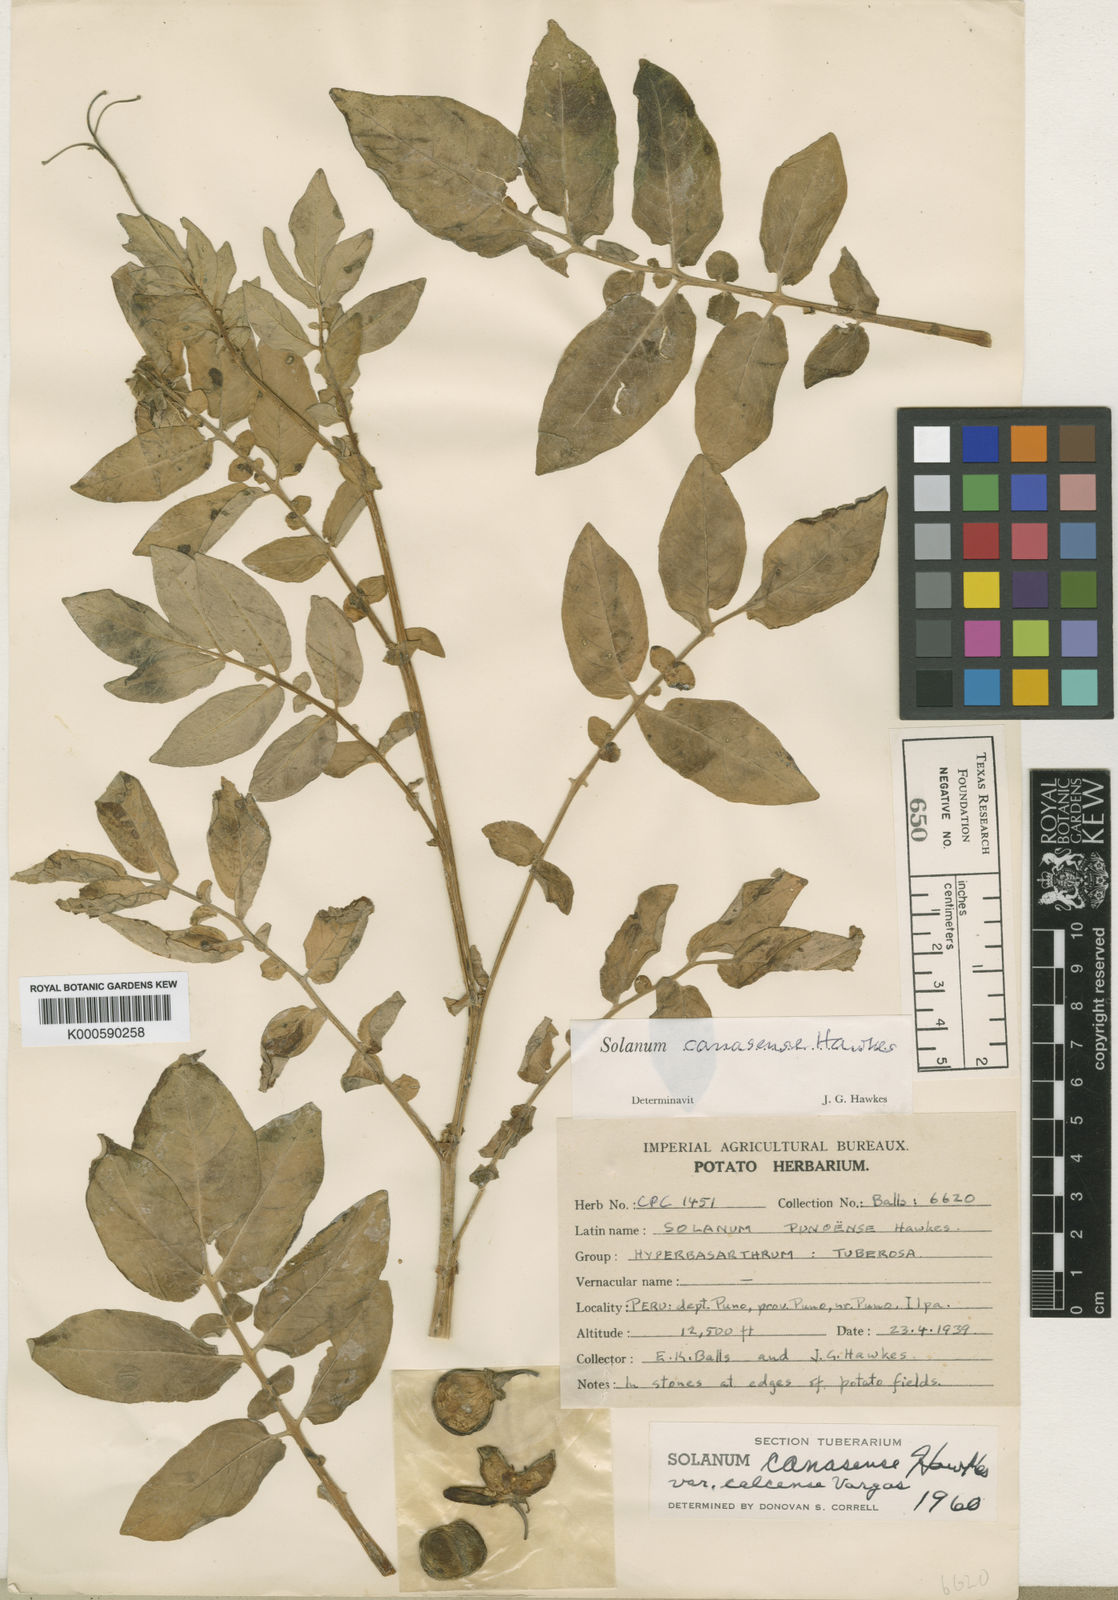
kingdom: Plantae
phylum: Tracheophyta
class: Magnoliopsida
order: Solanales
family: Solanaceae
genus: Solanum
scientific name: Solanum candolleanum
